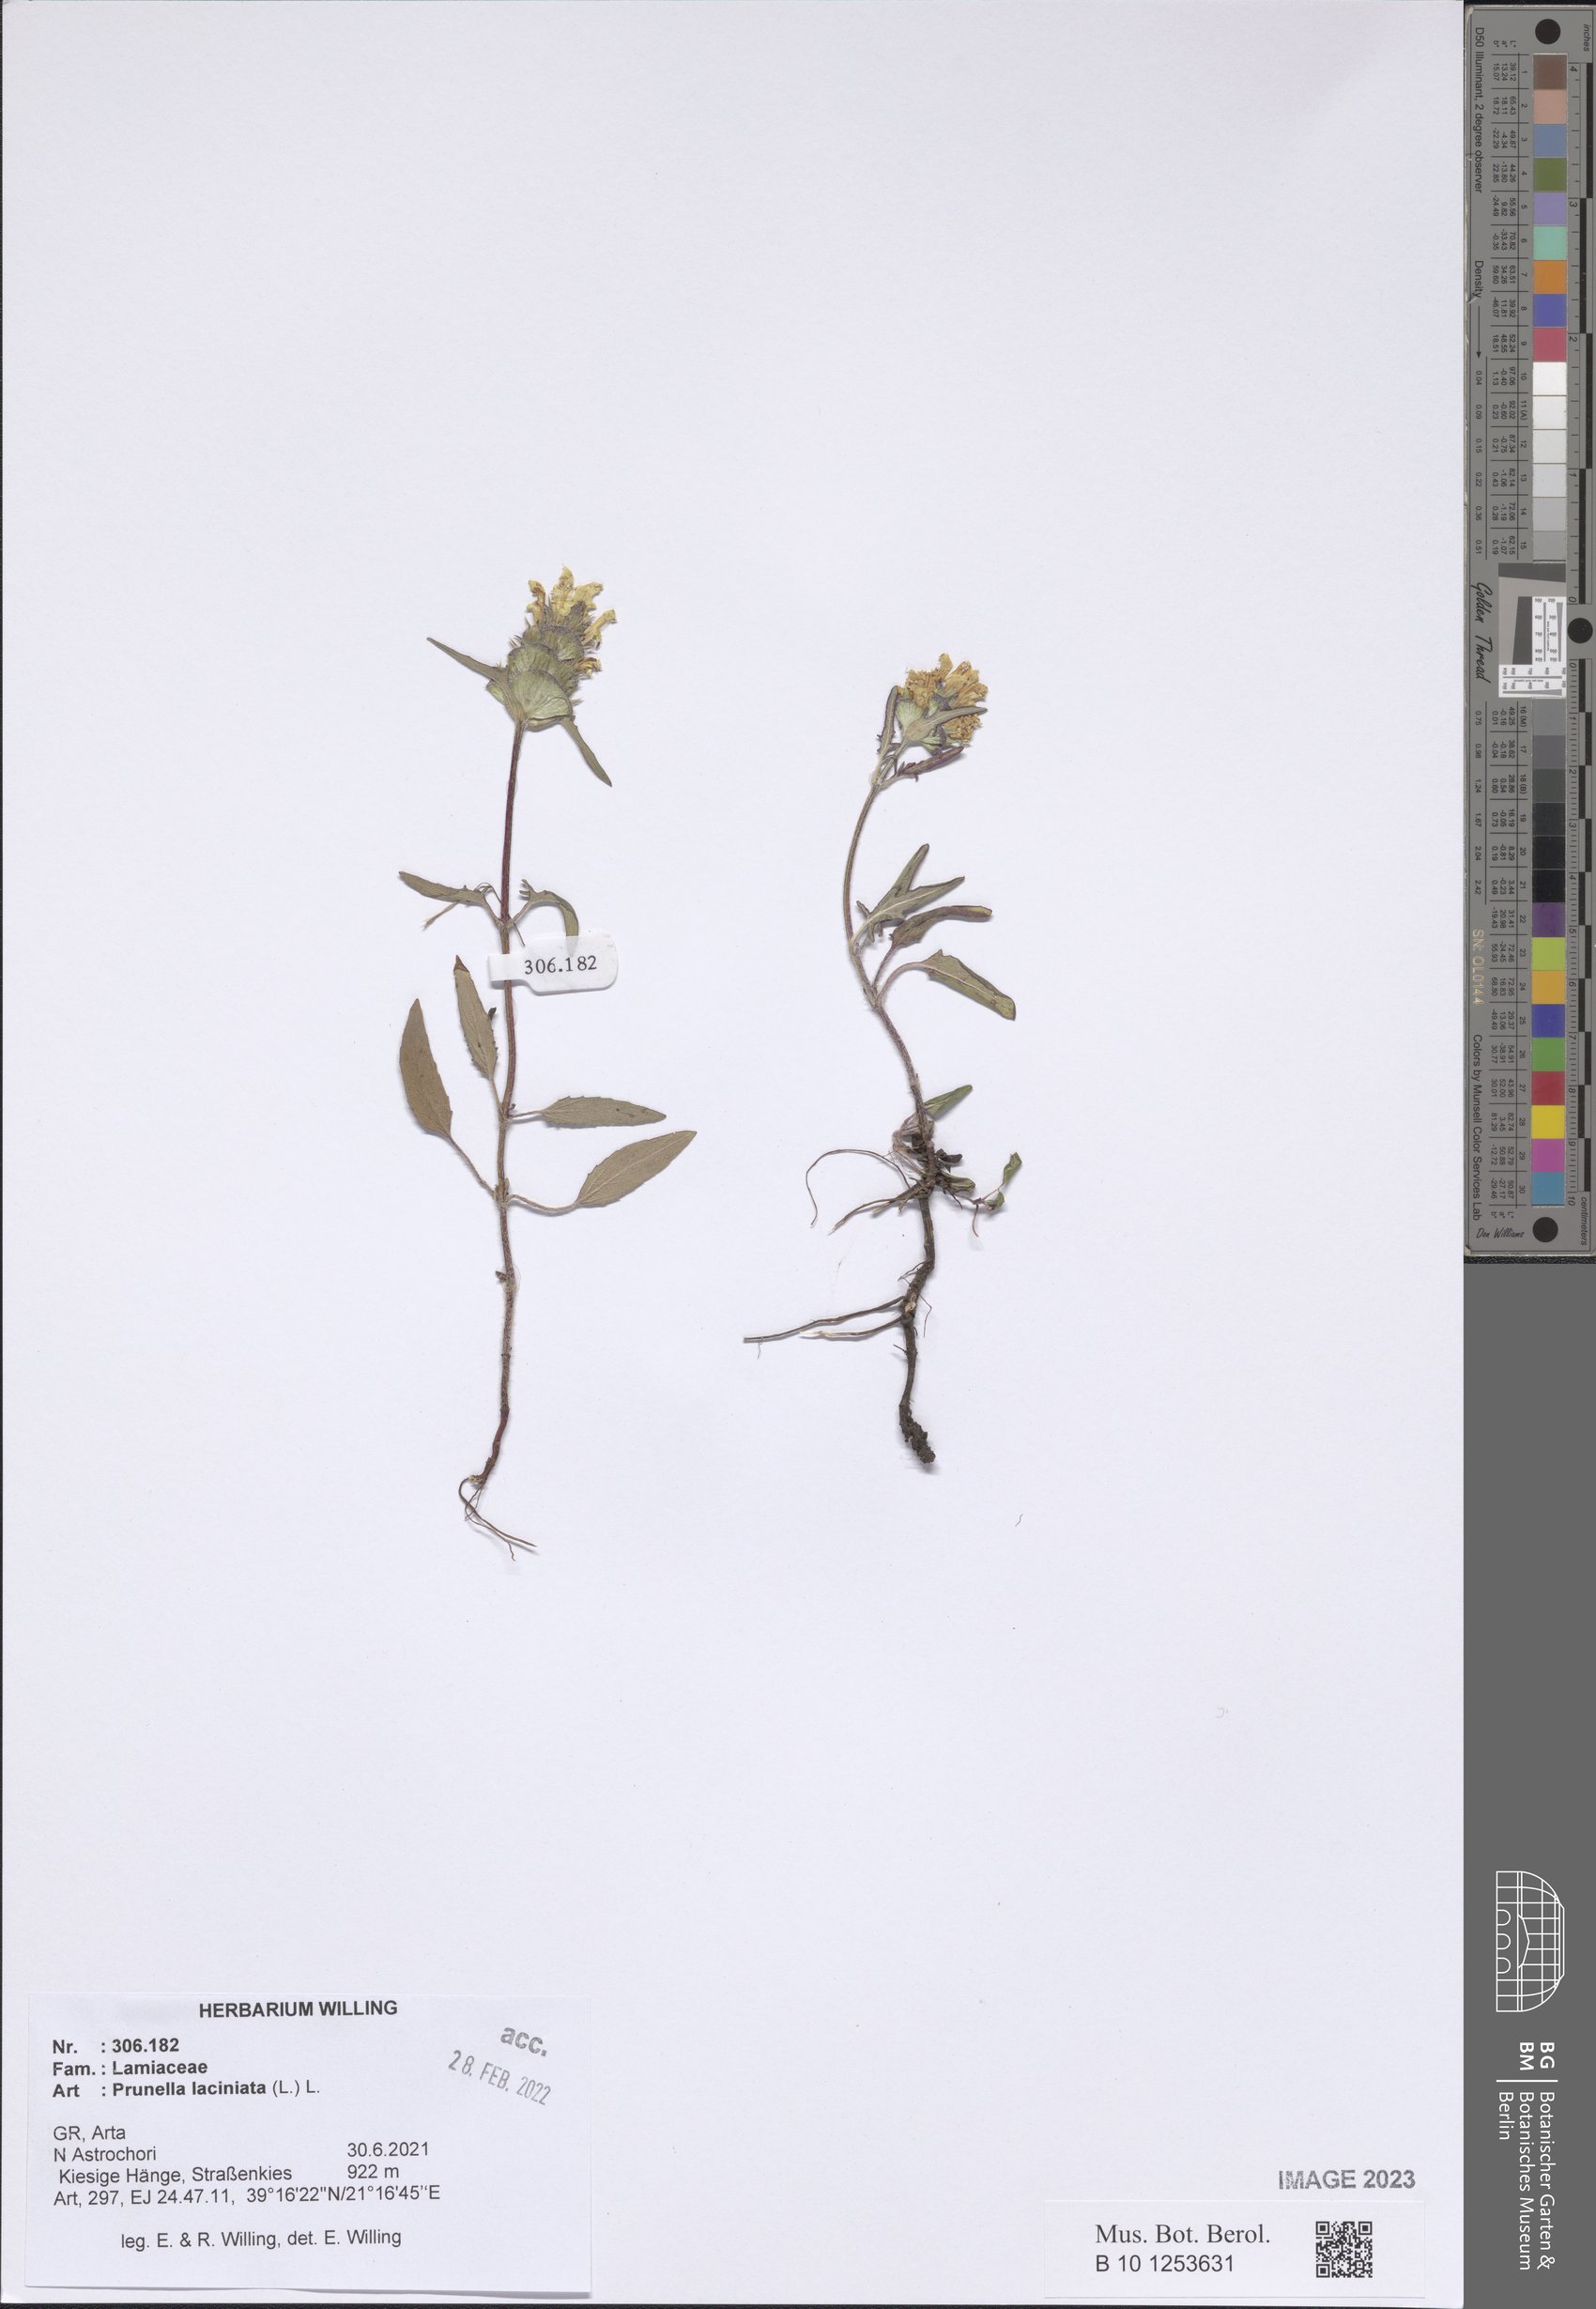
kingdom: Plantae
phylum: Tracheophyta
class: Magnoliopsida
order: Lamiales
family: Lamiaceae
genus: Prunella
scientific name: Prunella laciniata
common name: Cut-leaved selfheal
